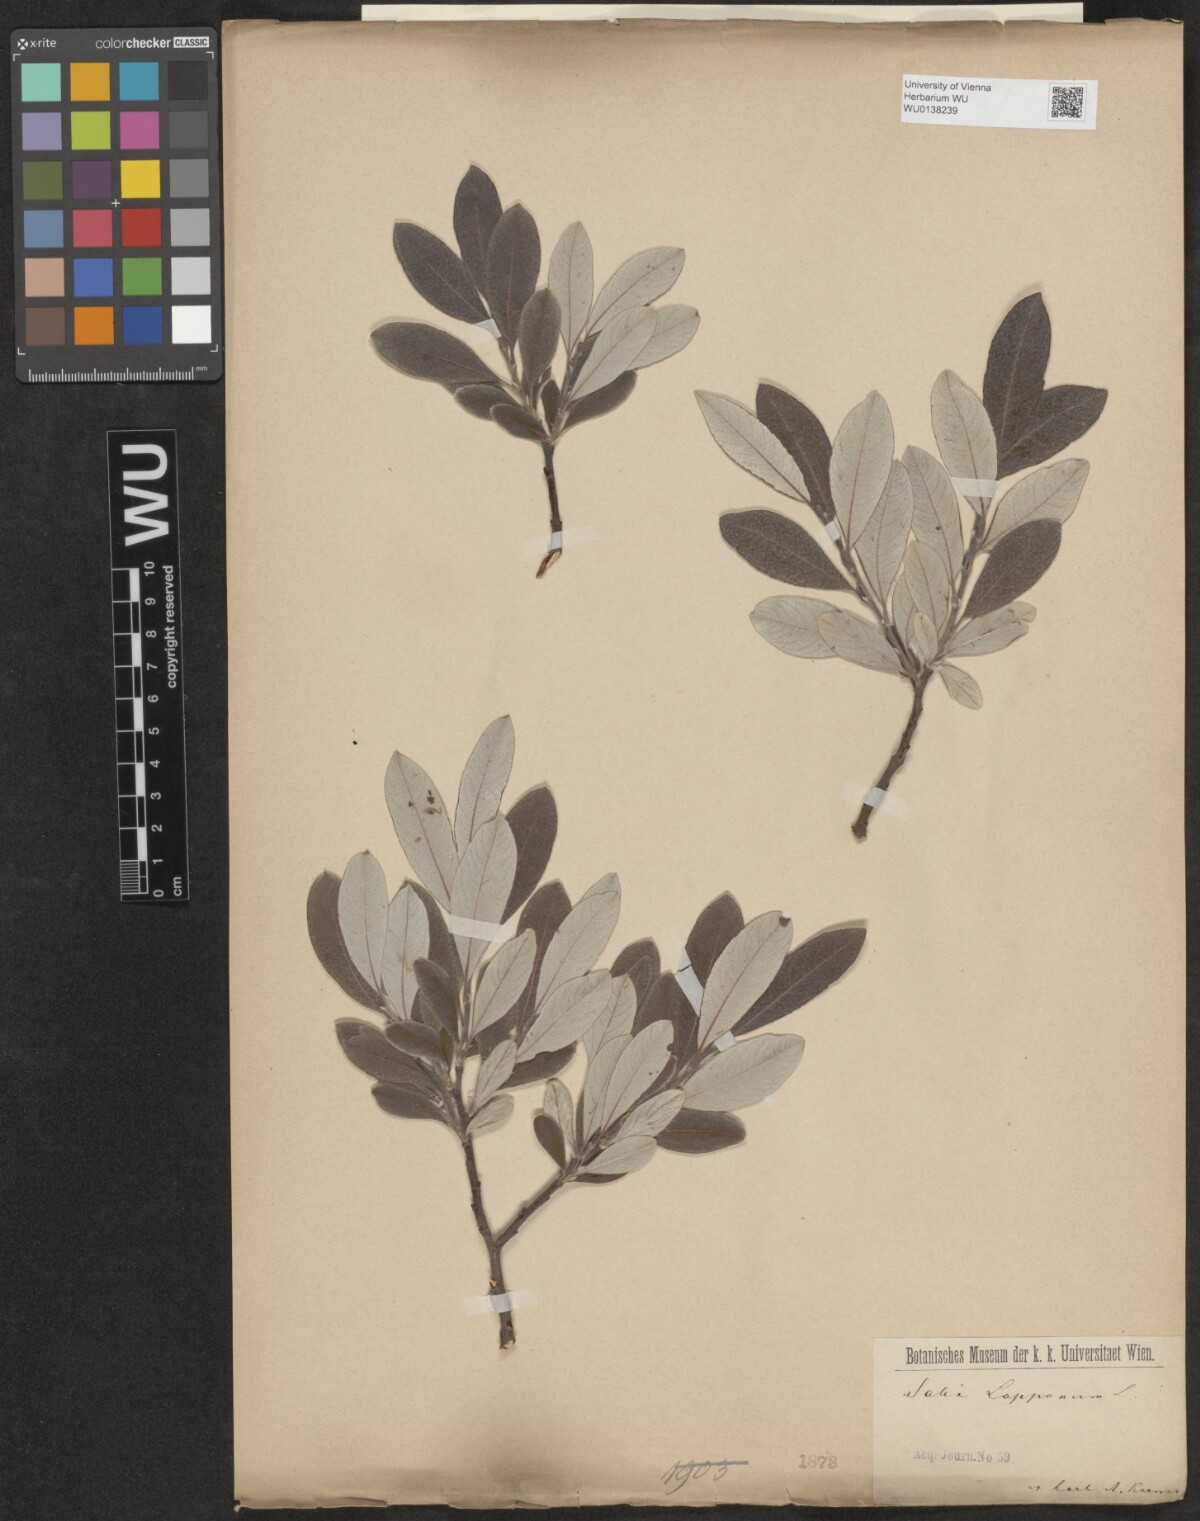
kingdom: Plantae
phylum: Tracheophyta
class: Magnoliopsida
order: Malpighiales
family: Salicaceae
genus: Salix
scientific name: Salix lapponum
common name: Downy willow
